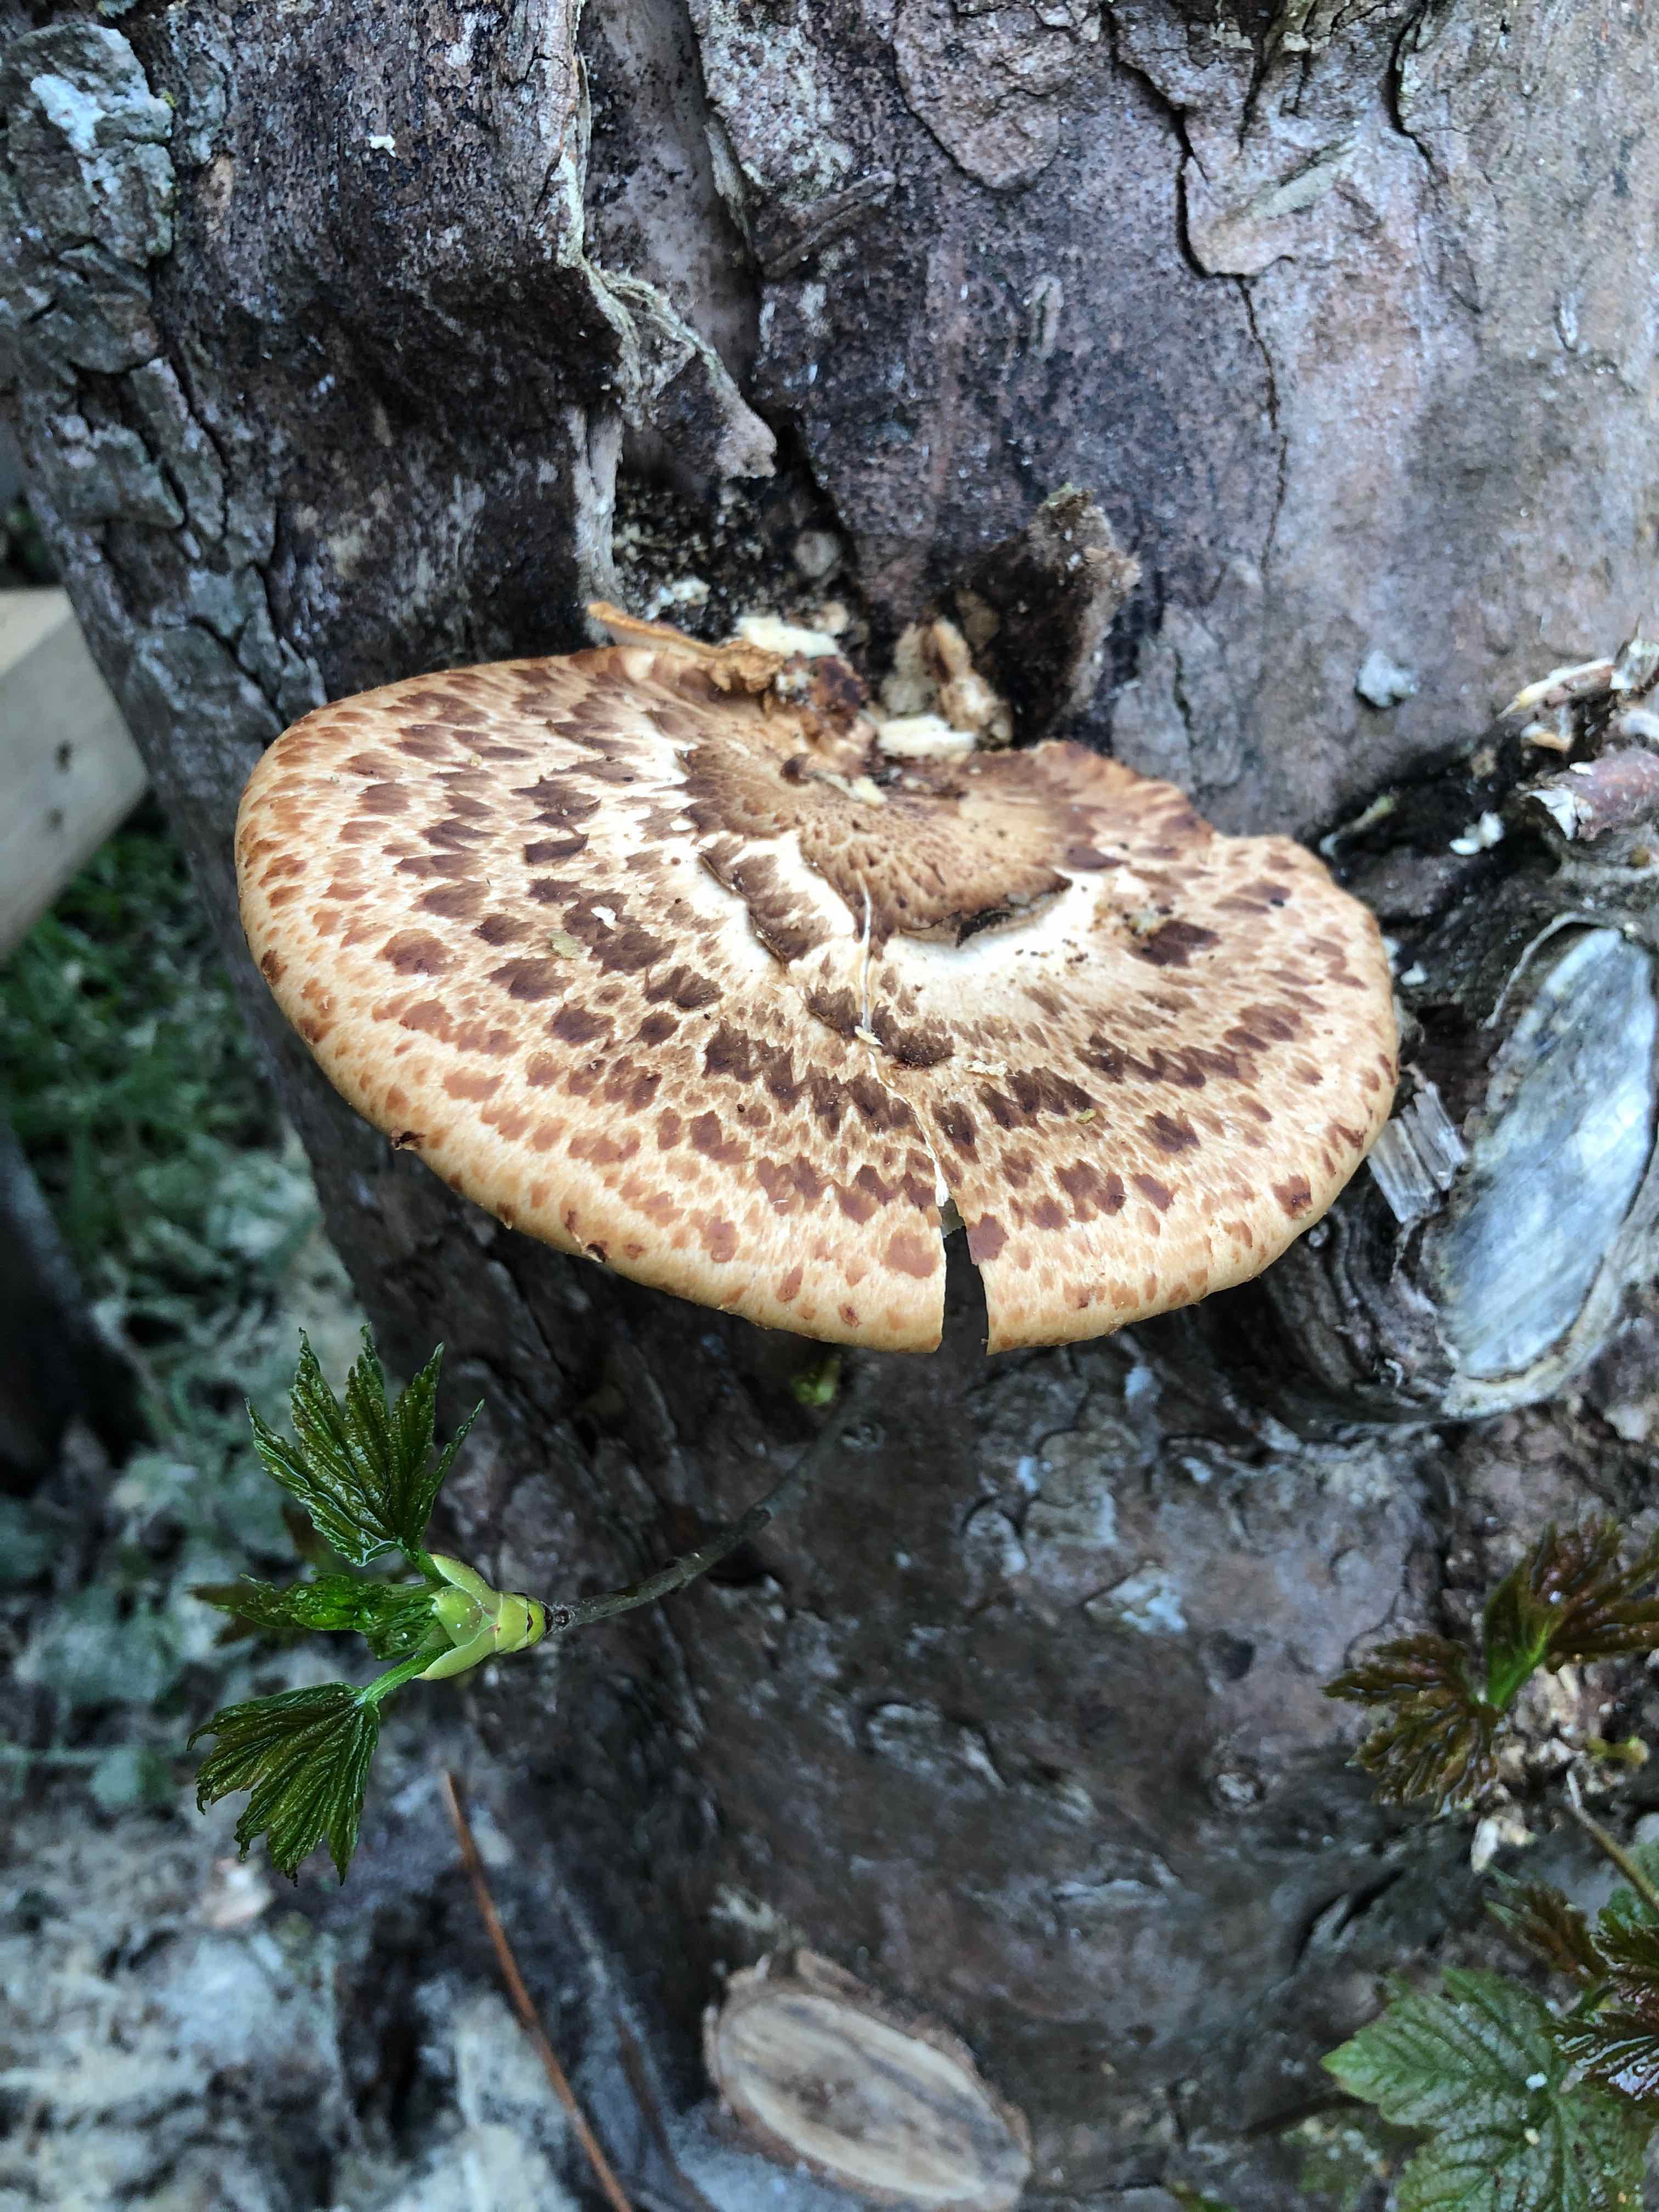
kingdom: Fungi
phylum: Basidiomycota
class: Agaricomycetes
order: Polyporales
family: Polyporaceae
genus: Cerioporus
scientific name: Cerioporus squamosus
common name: skællet stilkporesvamp
